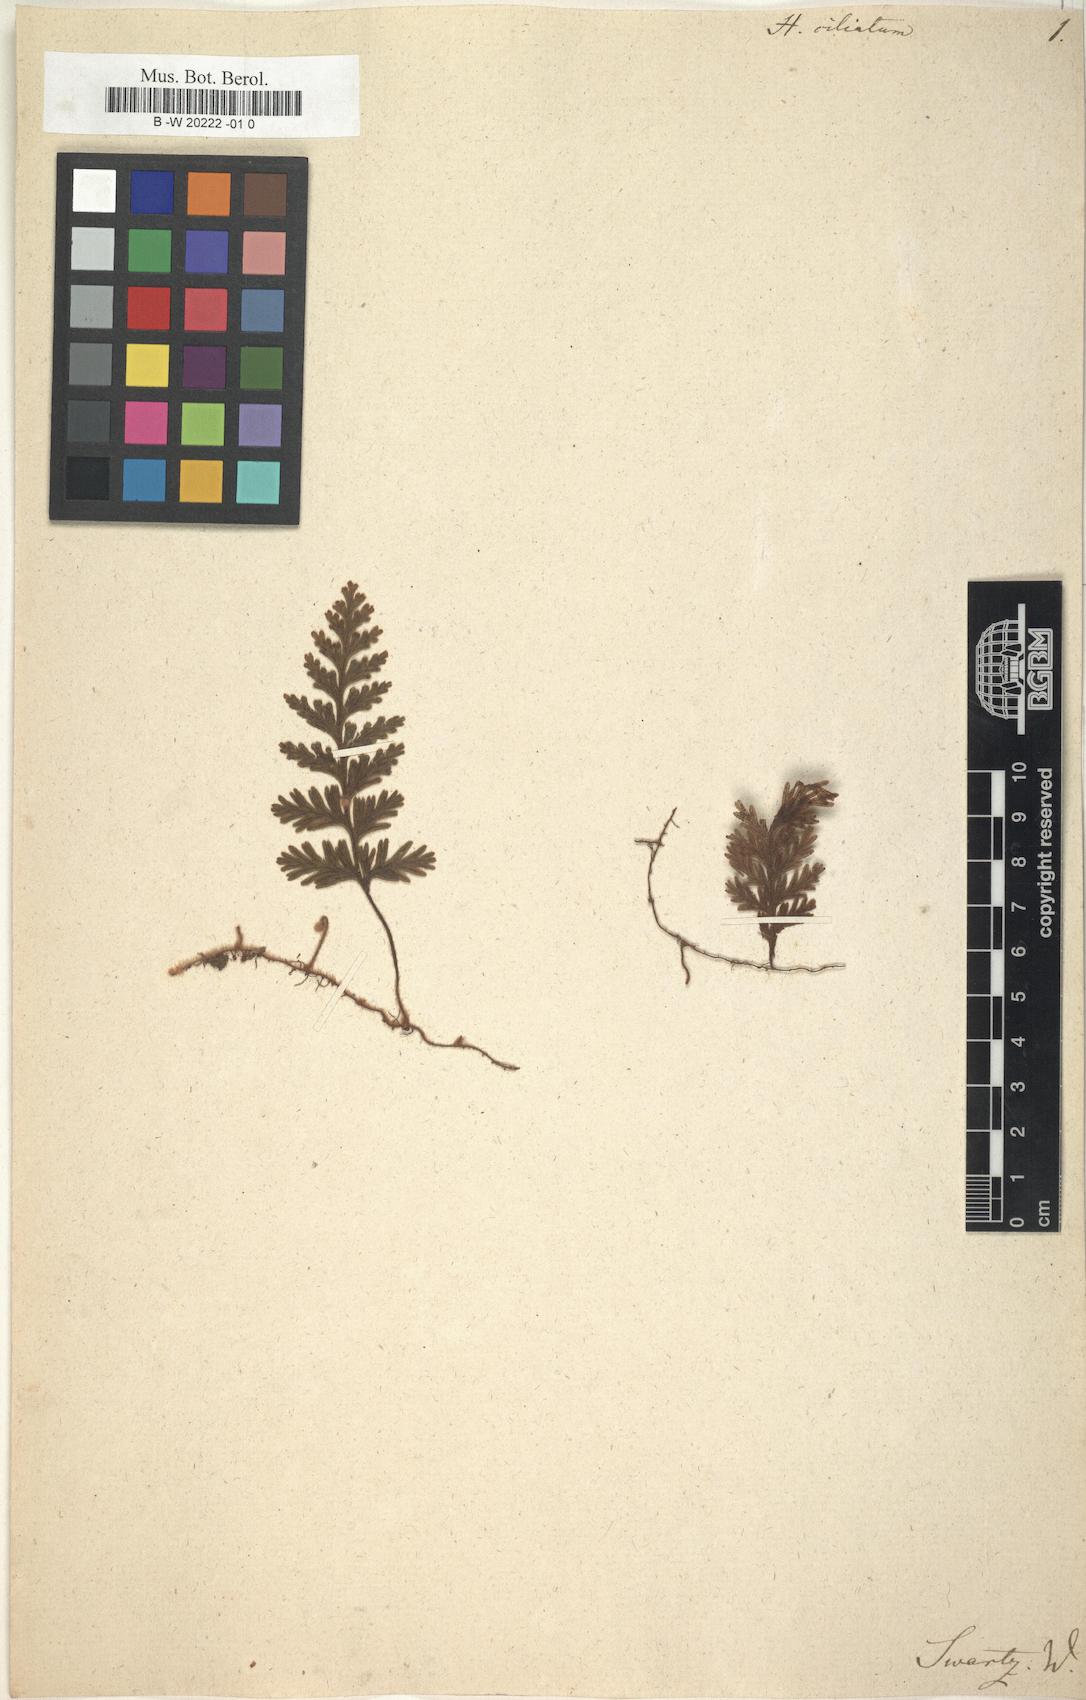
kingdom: Plantae
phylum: Tracheophyta
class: Polypodiopsida
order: Hymenophyllales
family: Hymenophyllaceae
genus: Hymenophyllum
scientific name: Hymenophyllum hirsutum
